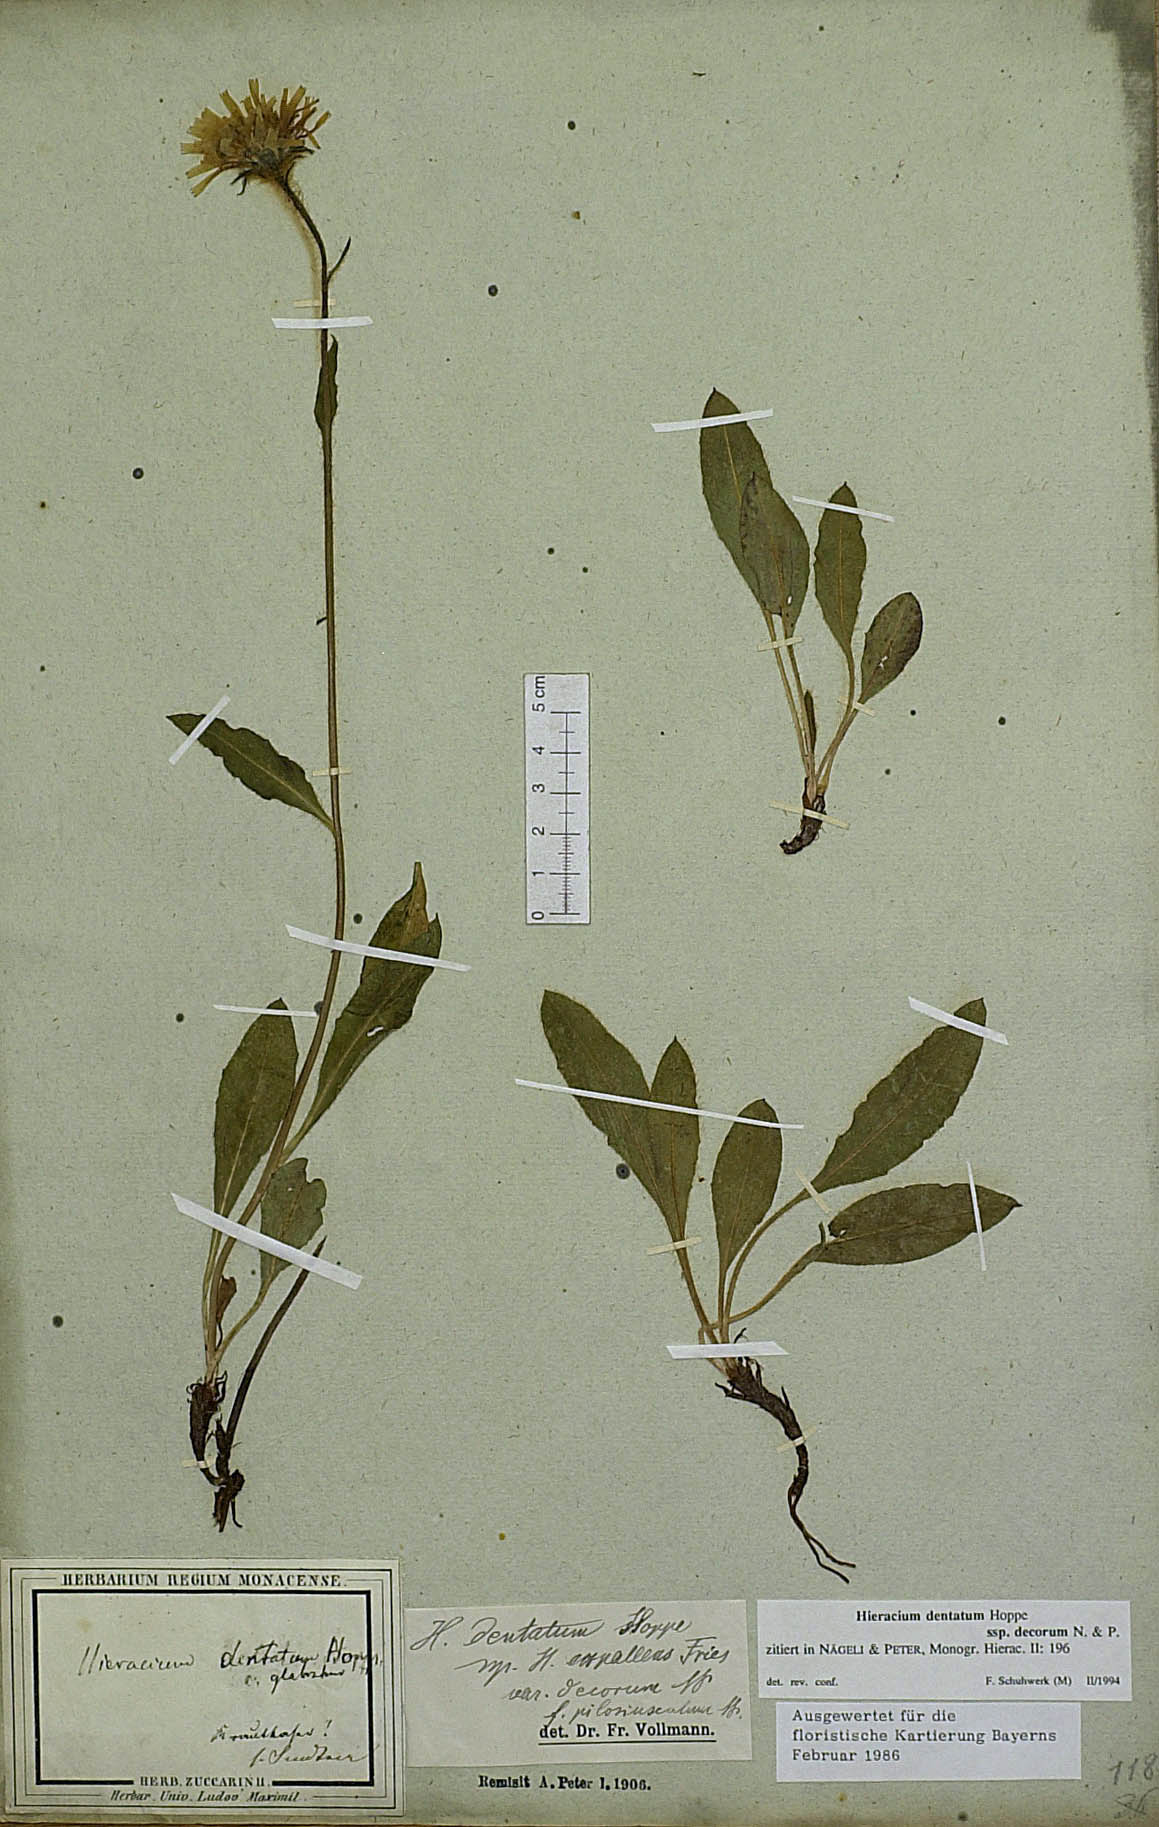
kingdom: Plantae
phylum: Tracheophyta
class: Magnoliopsida
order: Asterales
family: Asteraceae
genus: Hieracium
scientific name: Hieracium dentatum
